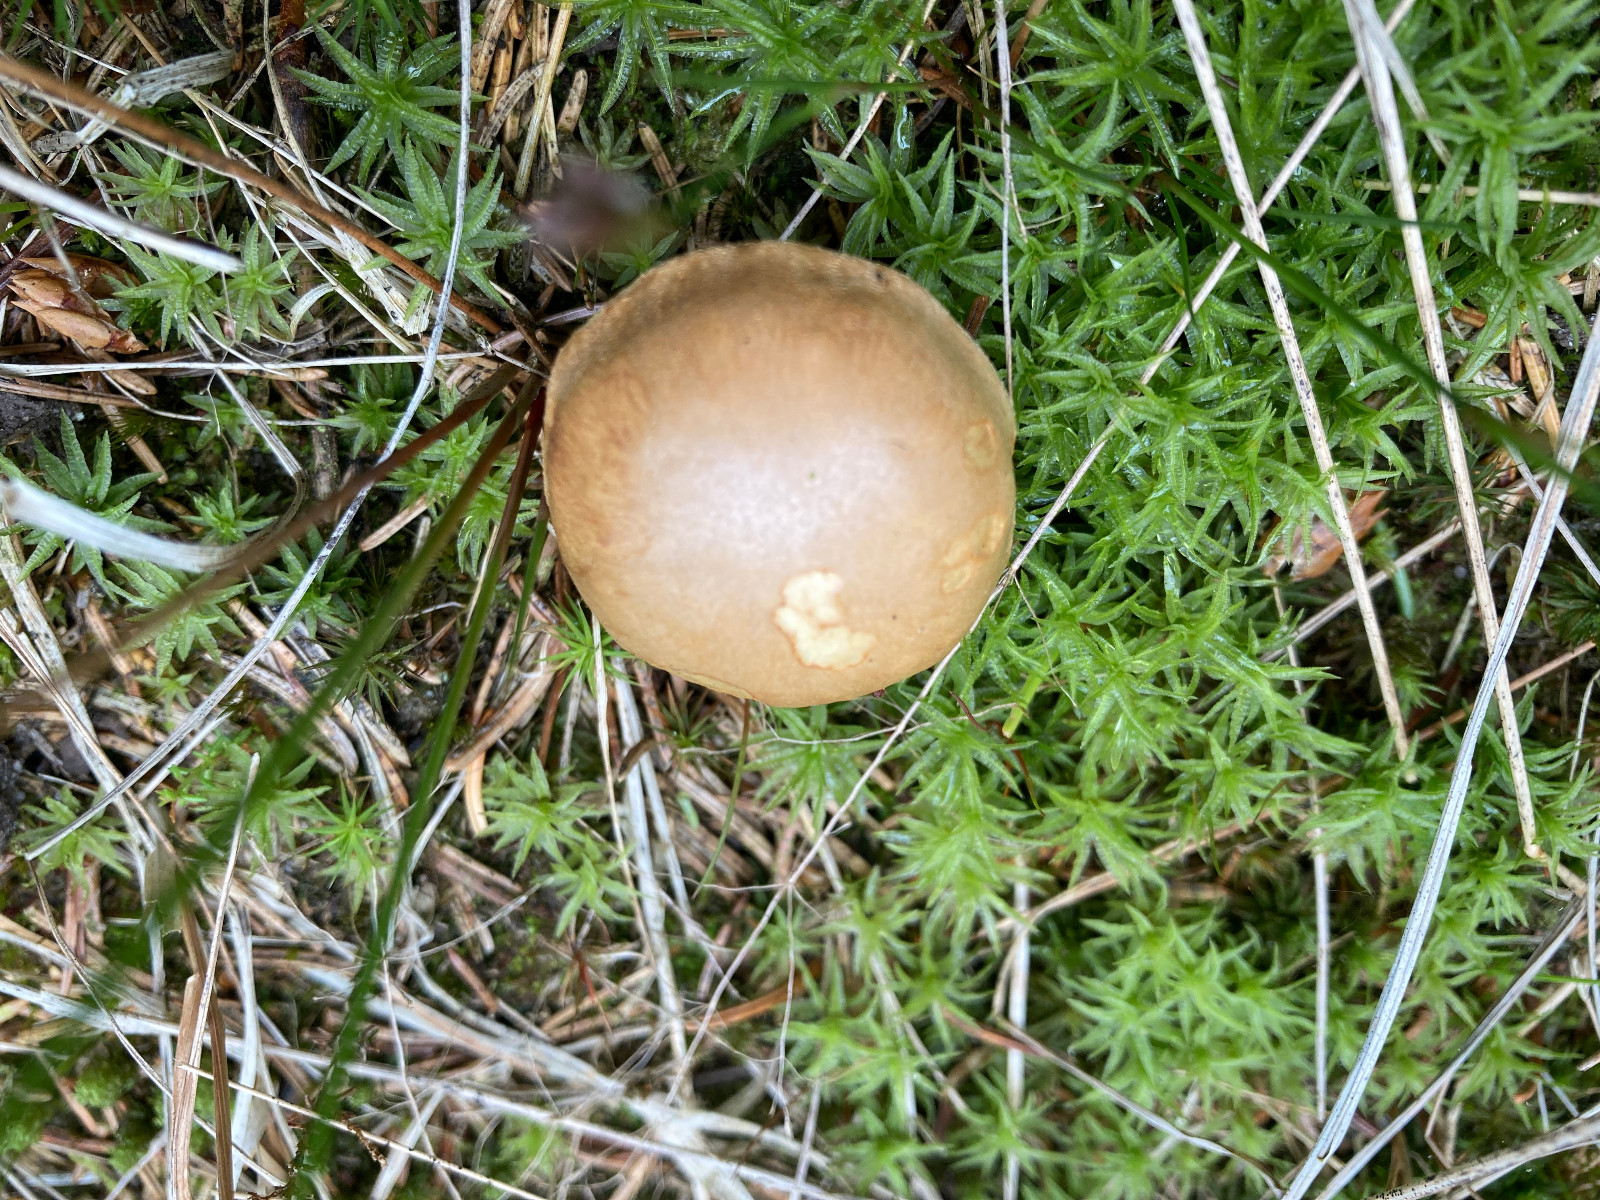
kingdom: Fungi
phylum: Basidiomycota
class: Agaricomycetes
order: Boletales
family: Boletaceae
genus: Chalciporus
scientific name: Chalciporus piperatus
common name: peberrørhat
